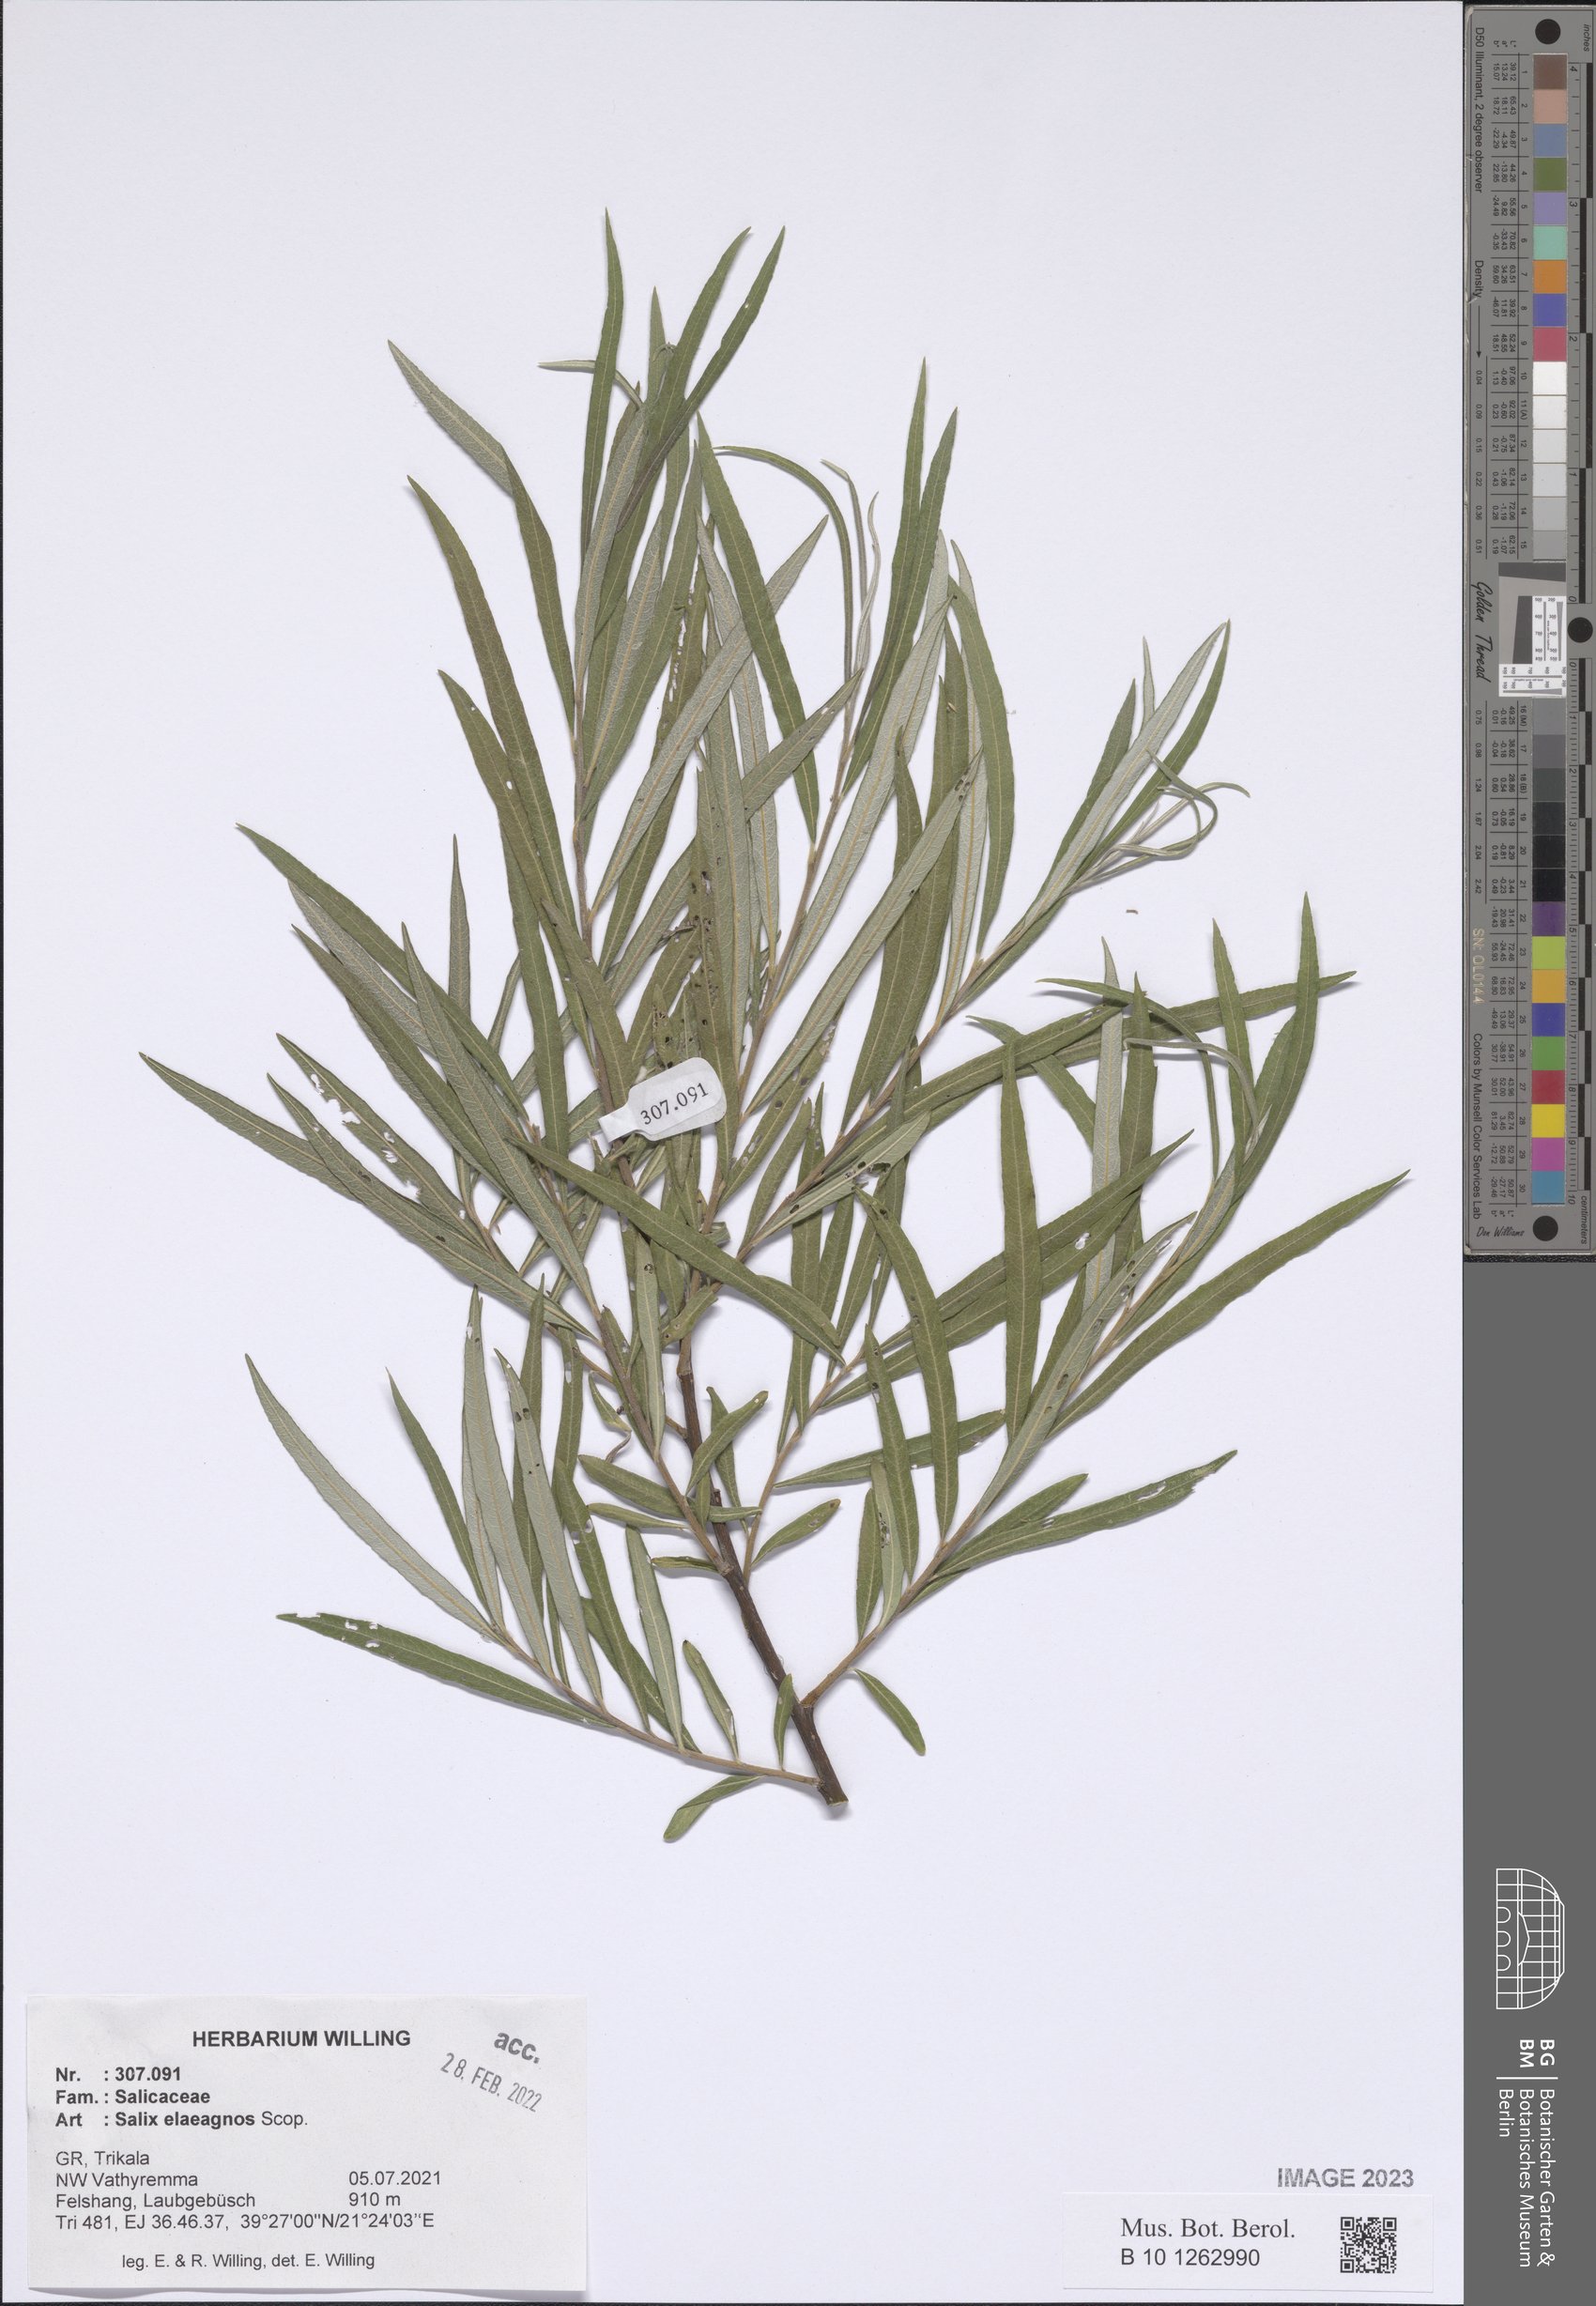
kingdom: Plantae
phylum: Tracheophyta
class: Magnoliopsida
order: Malpighiales
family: Salicaceae
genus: Salix
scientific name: Salix eleagnos
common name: Elaeagnus willow
